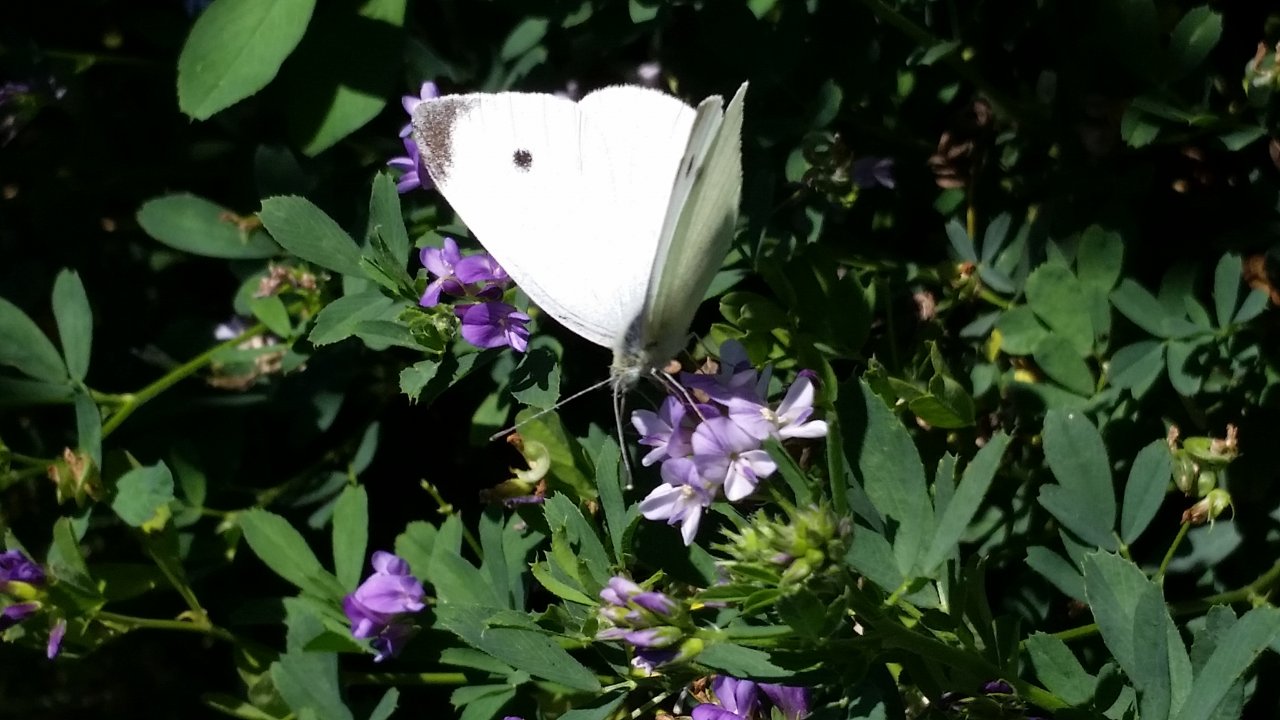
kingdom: Animalia
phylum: Arthropoda
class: Insecta
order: Lepidoptera
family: Pieridae
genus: Pieris
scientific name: Pieris rapae
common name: Cabbage White
